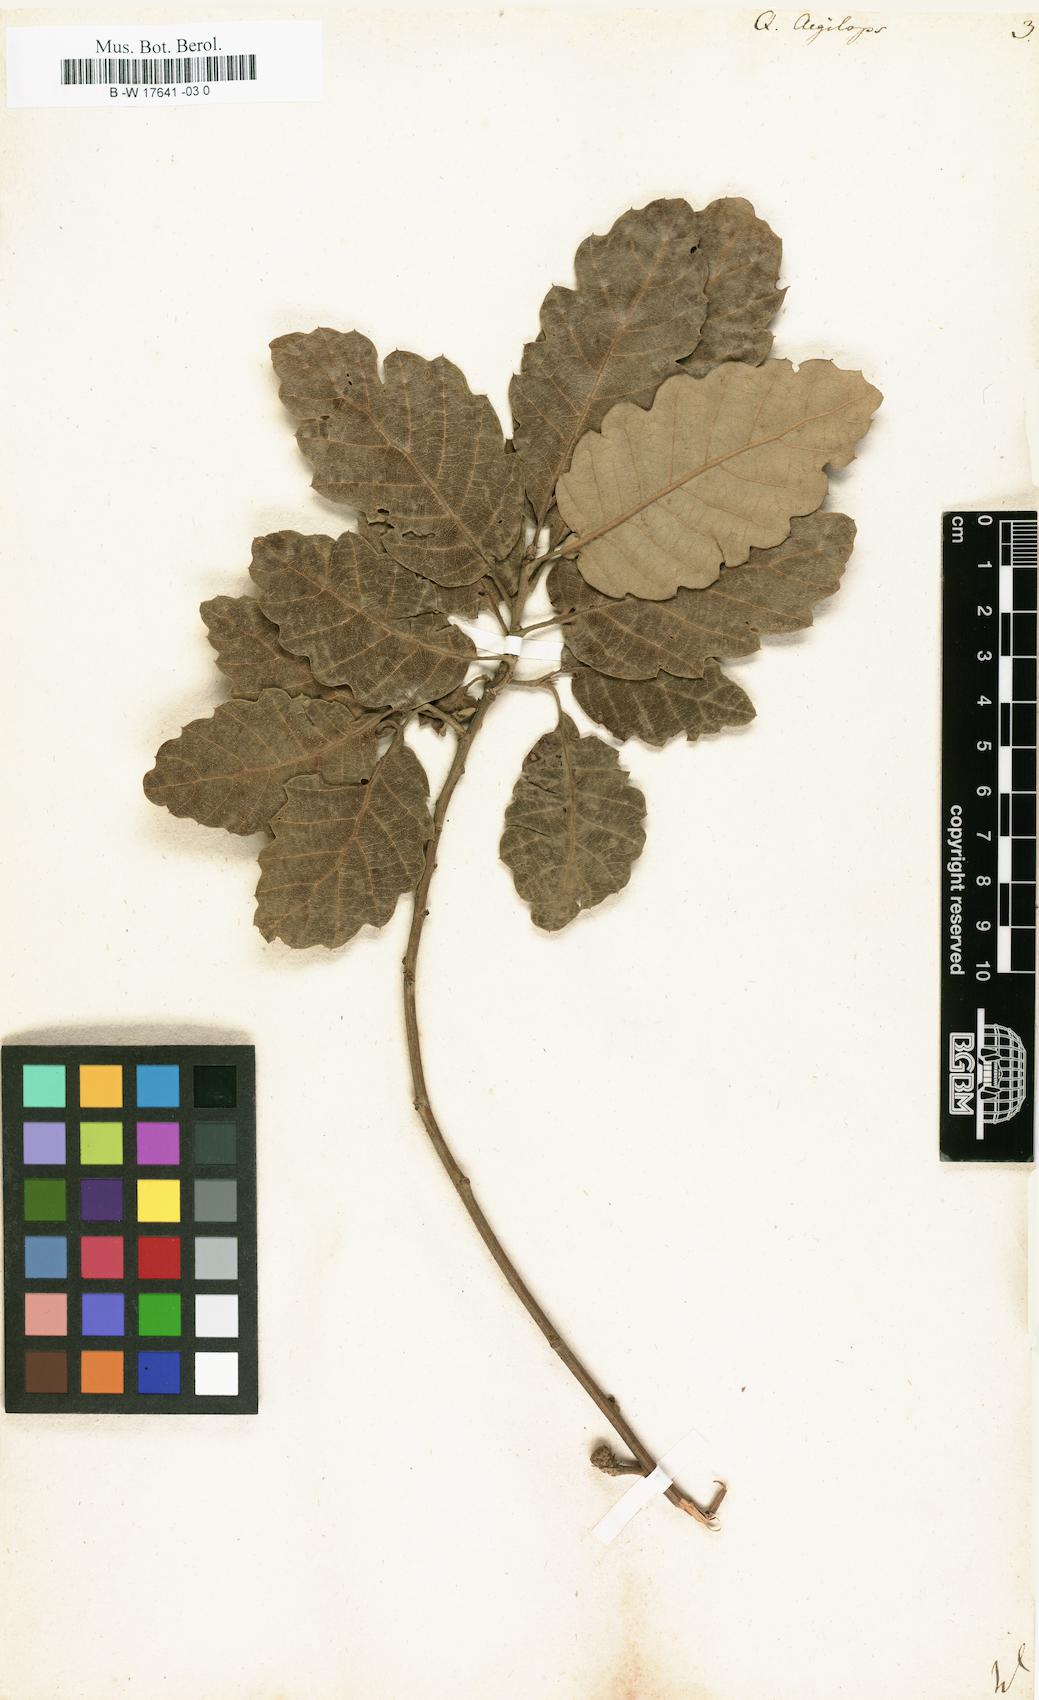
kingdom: Plantae
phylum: Tracheophyta
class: Magnoliopsida
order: Fagales
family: Fagaceae
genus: Quercus
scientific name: Quercus
